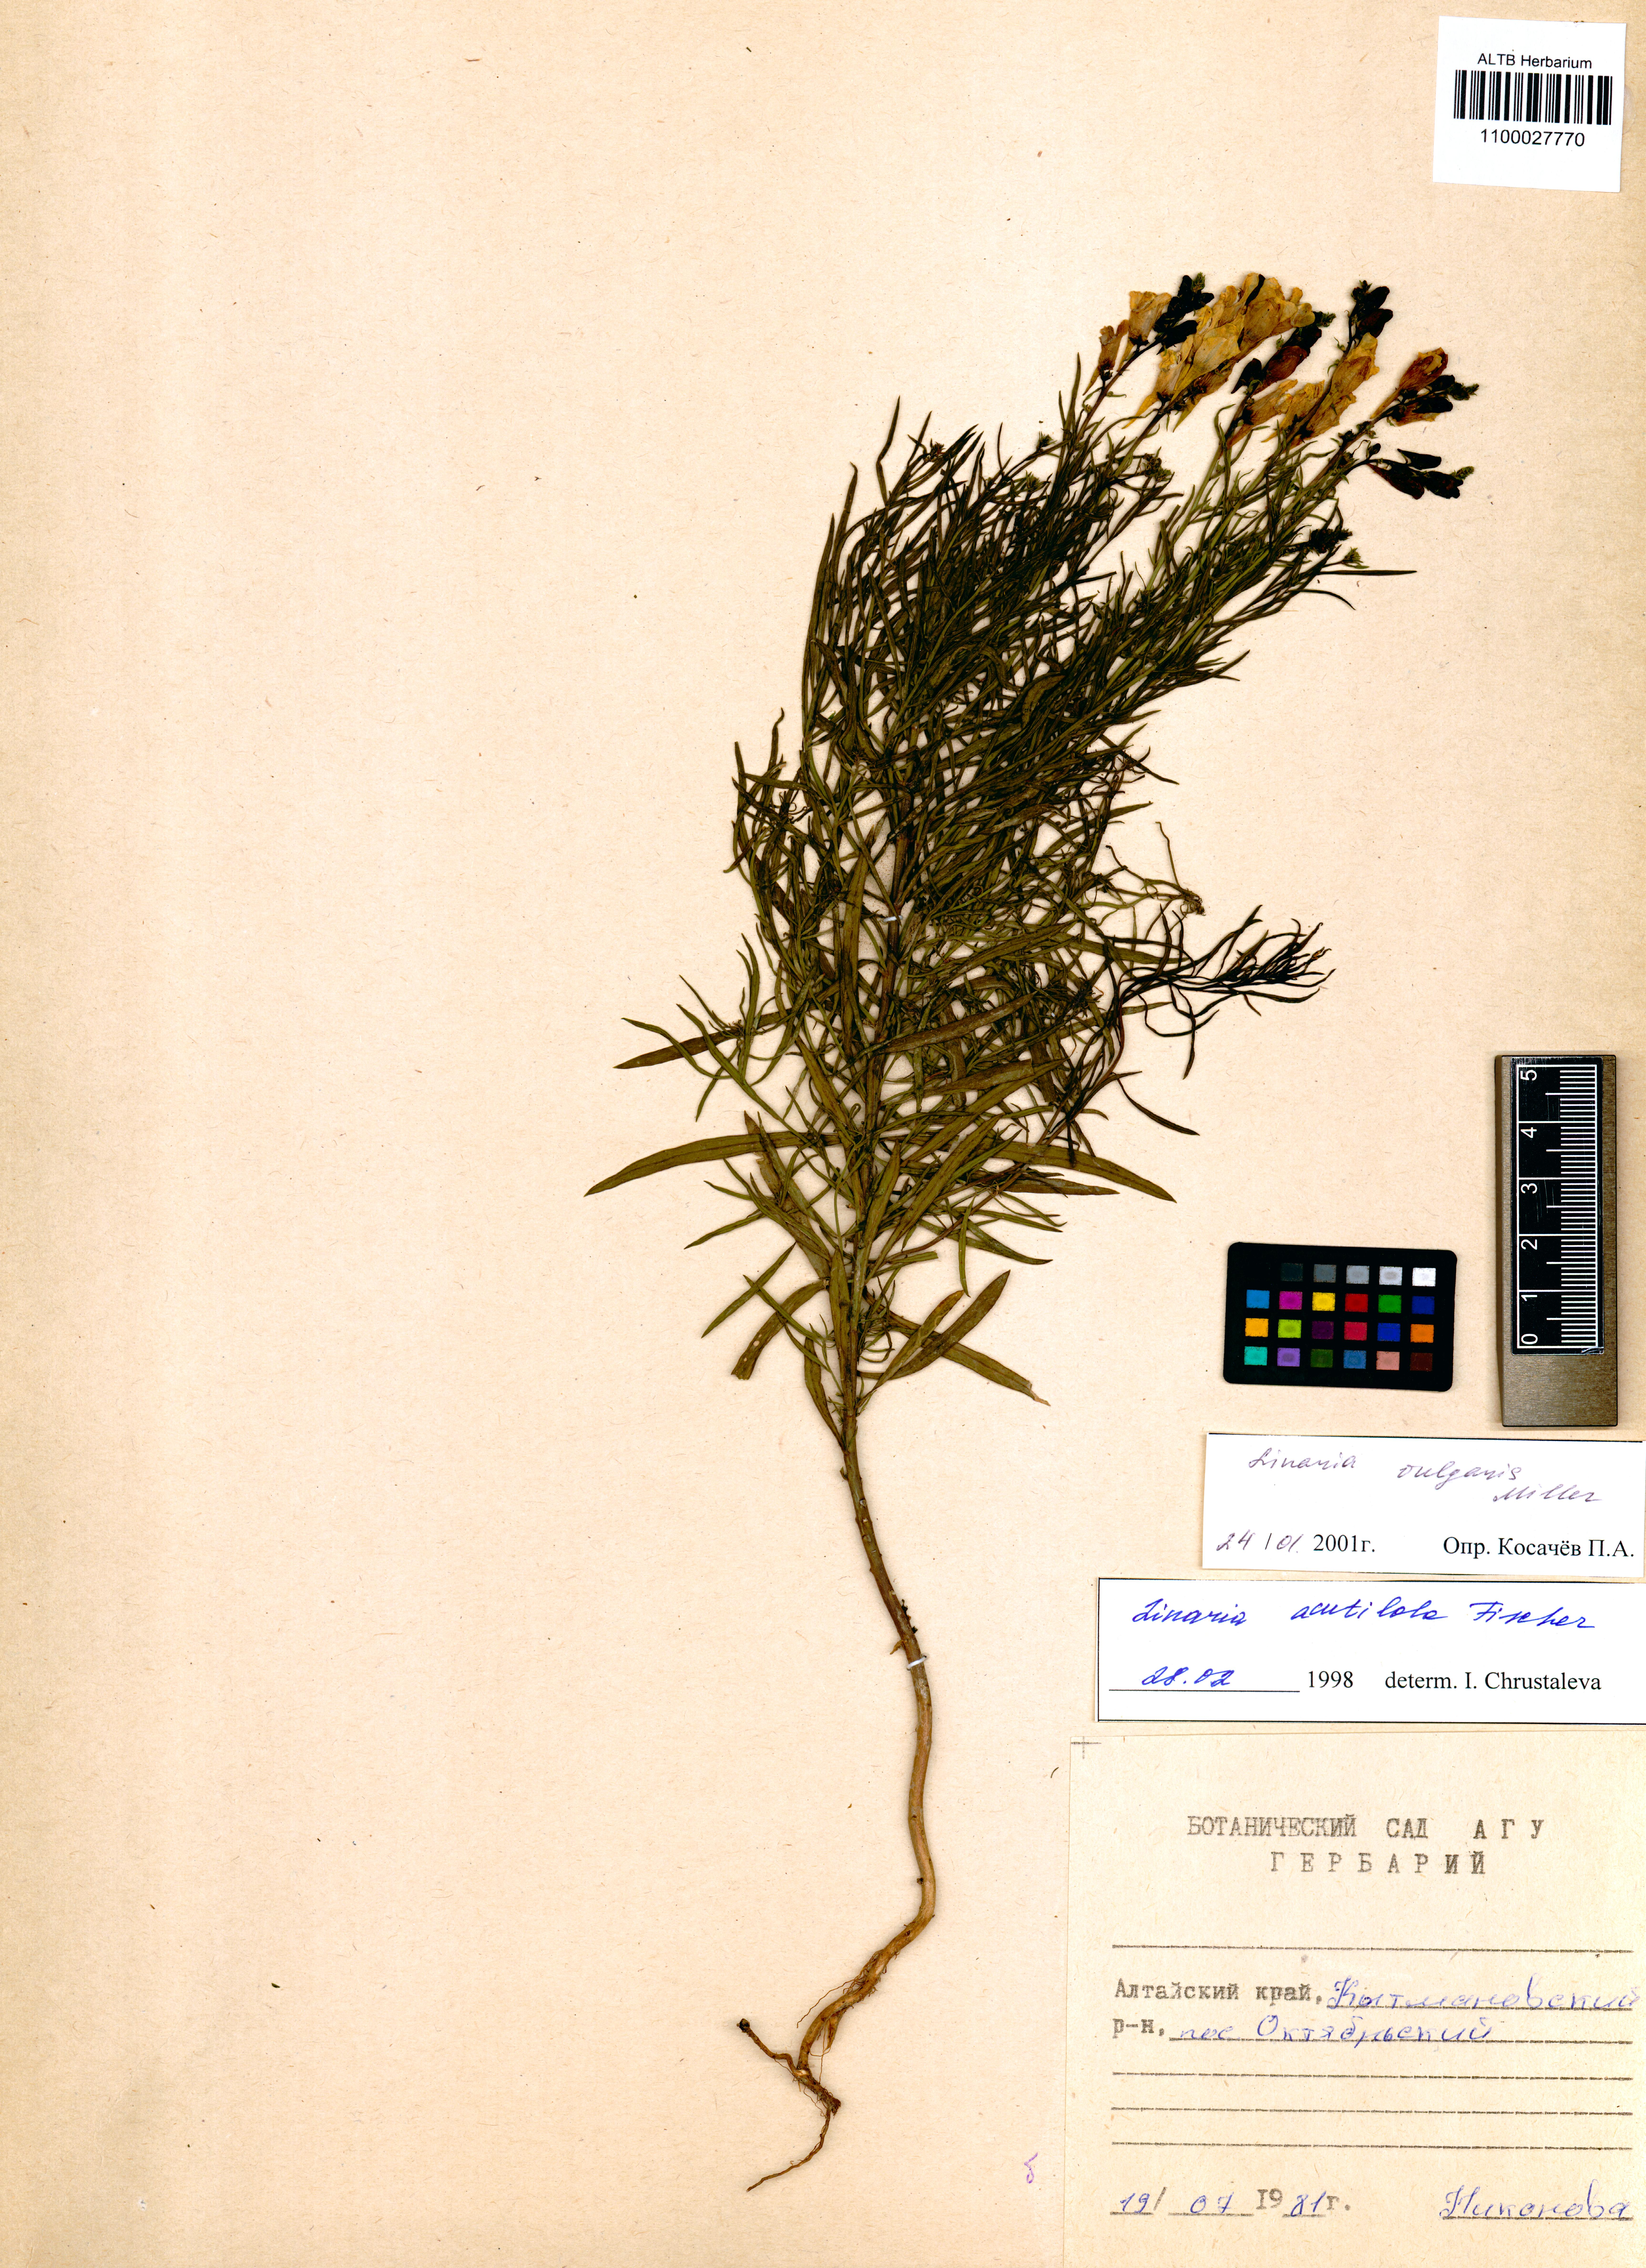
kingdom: Plantae
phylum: Tracheophyta
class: Magnoliopsida
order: Lamiales
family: Plantaginaceae
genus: Linaria
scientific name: Linaria vulgaris
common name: Butter and eggs
